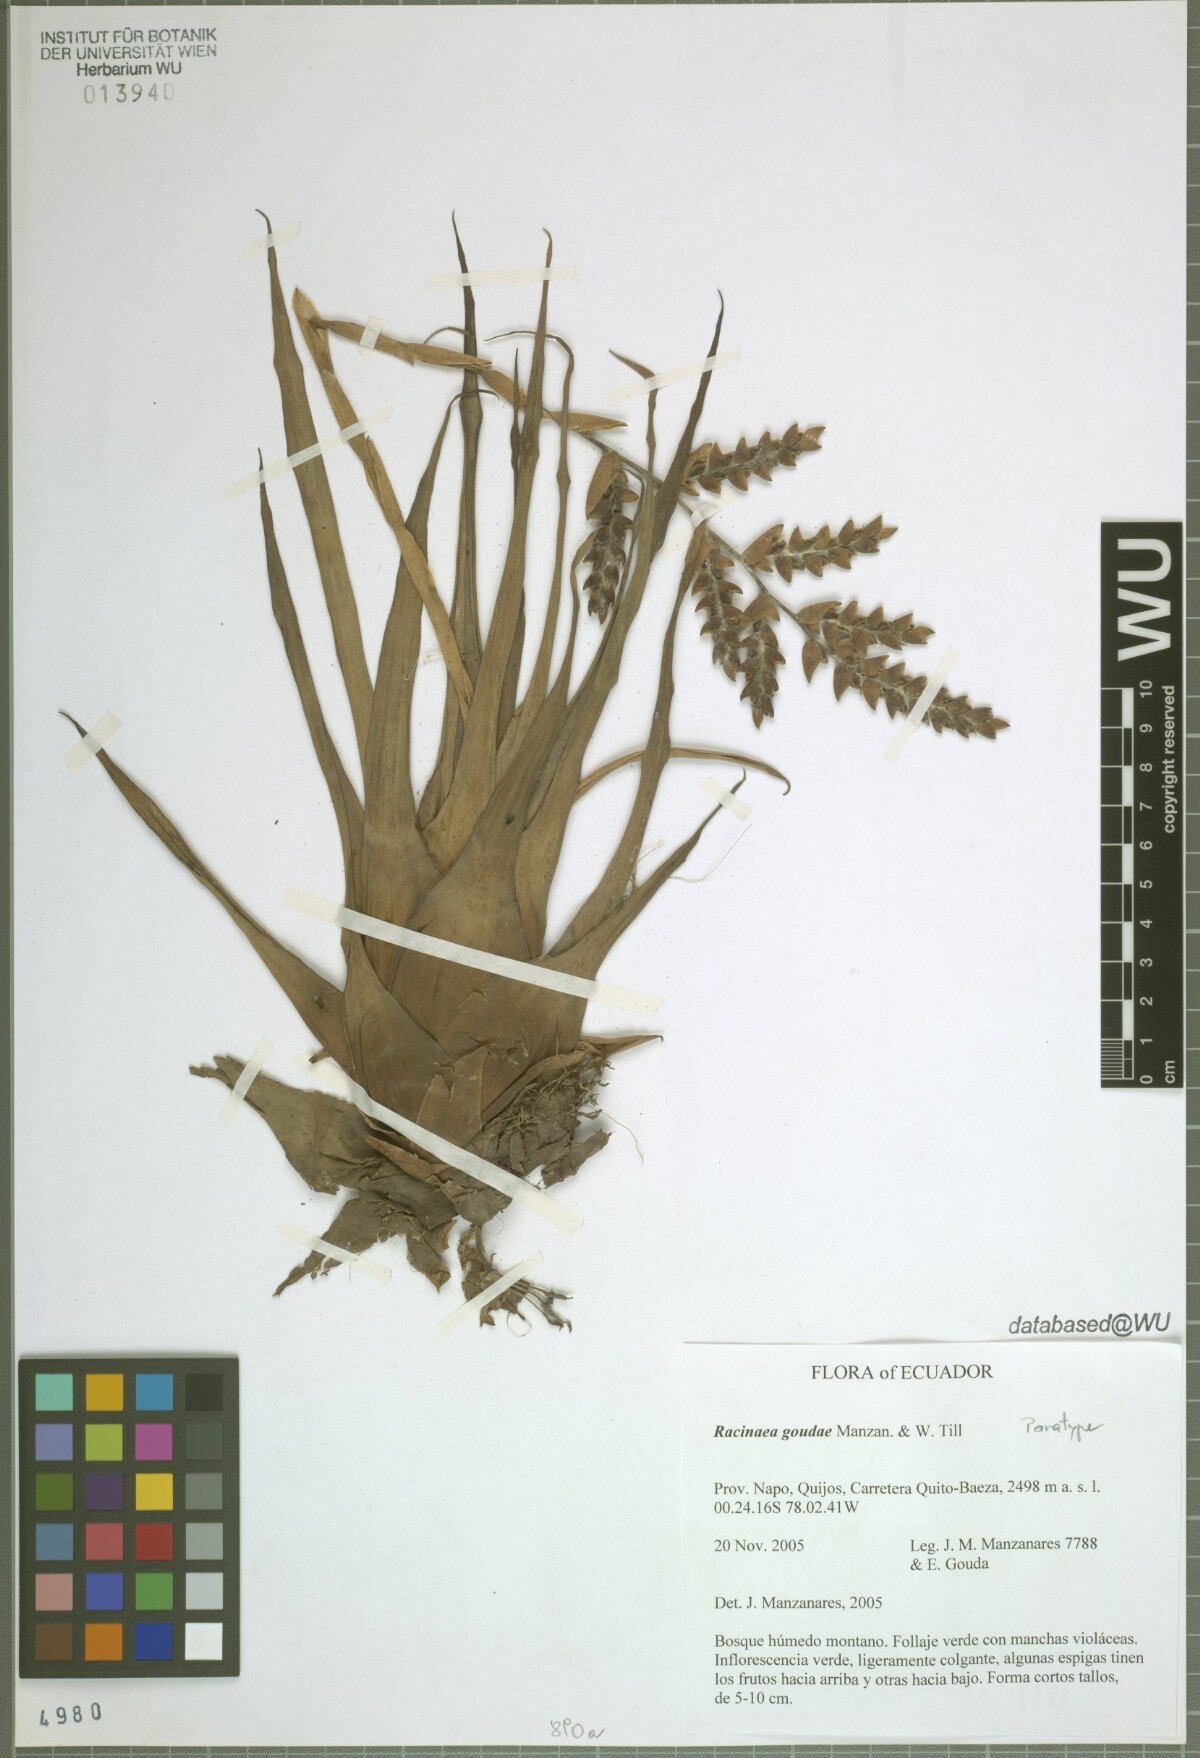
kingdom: Plantae
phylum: Tracheophyta
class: Liliopsida
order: Poales
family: Bromeliaceae
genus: Racinaea
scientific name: Racinaea goudae
